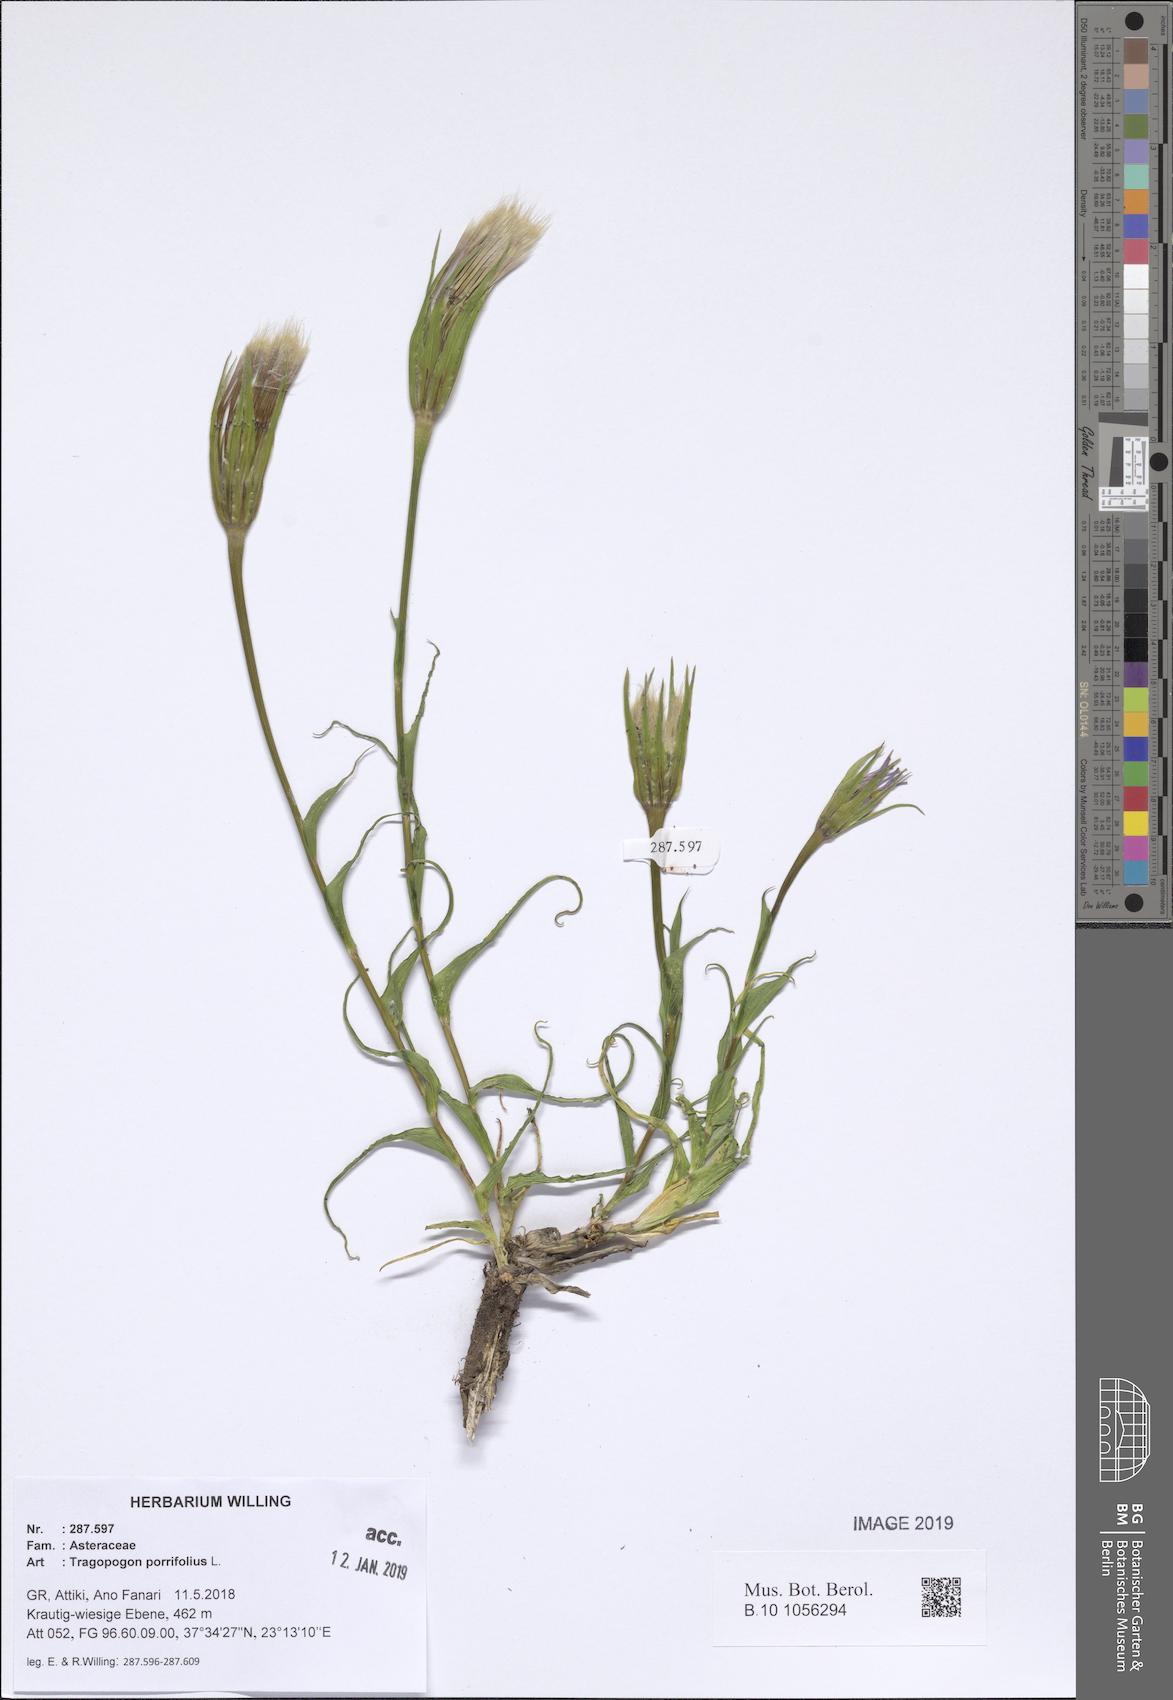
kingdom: Plantae
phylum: Tracheophyta
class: Magnoliopsida
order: Asterales
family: Asteraceae
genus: Tragopogon
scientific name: Tragopogon porrifolius
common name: Salsify
